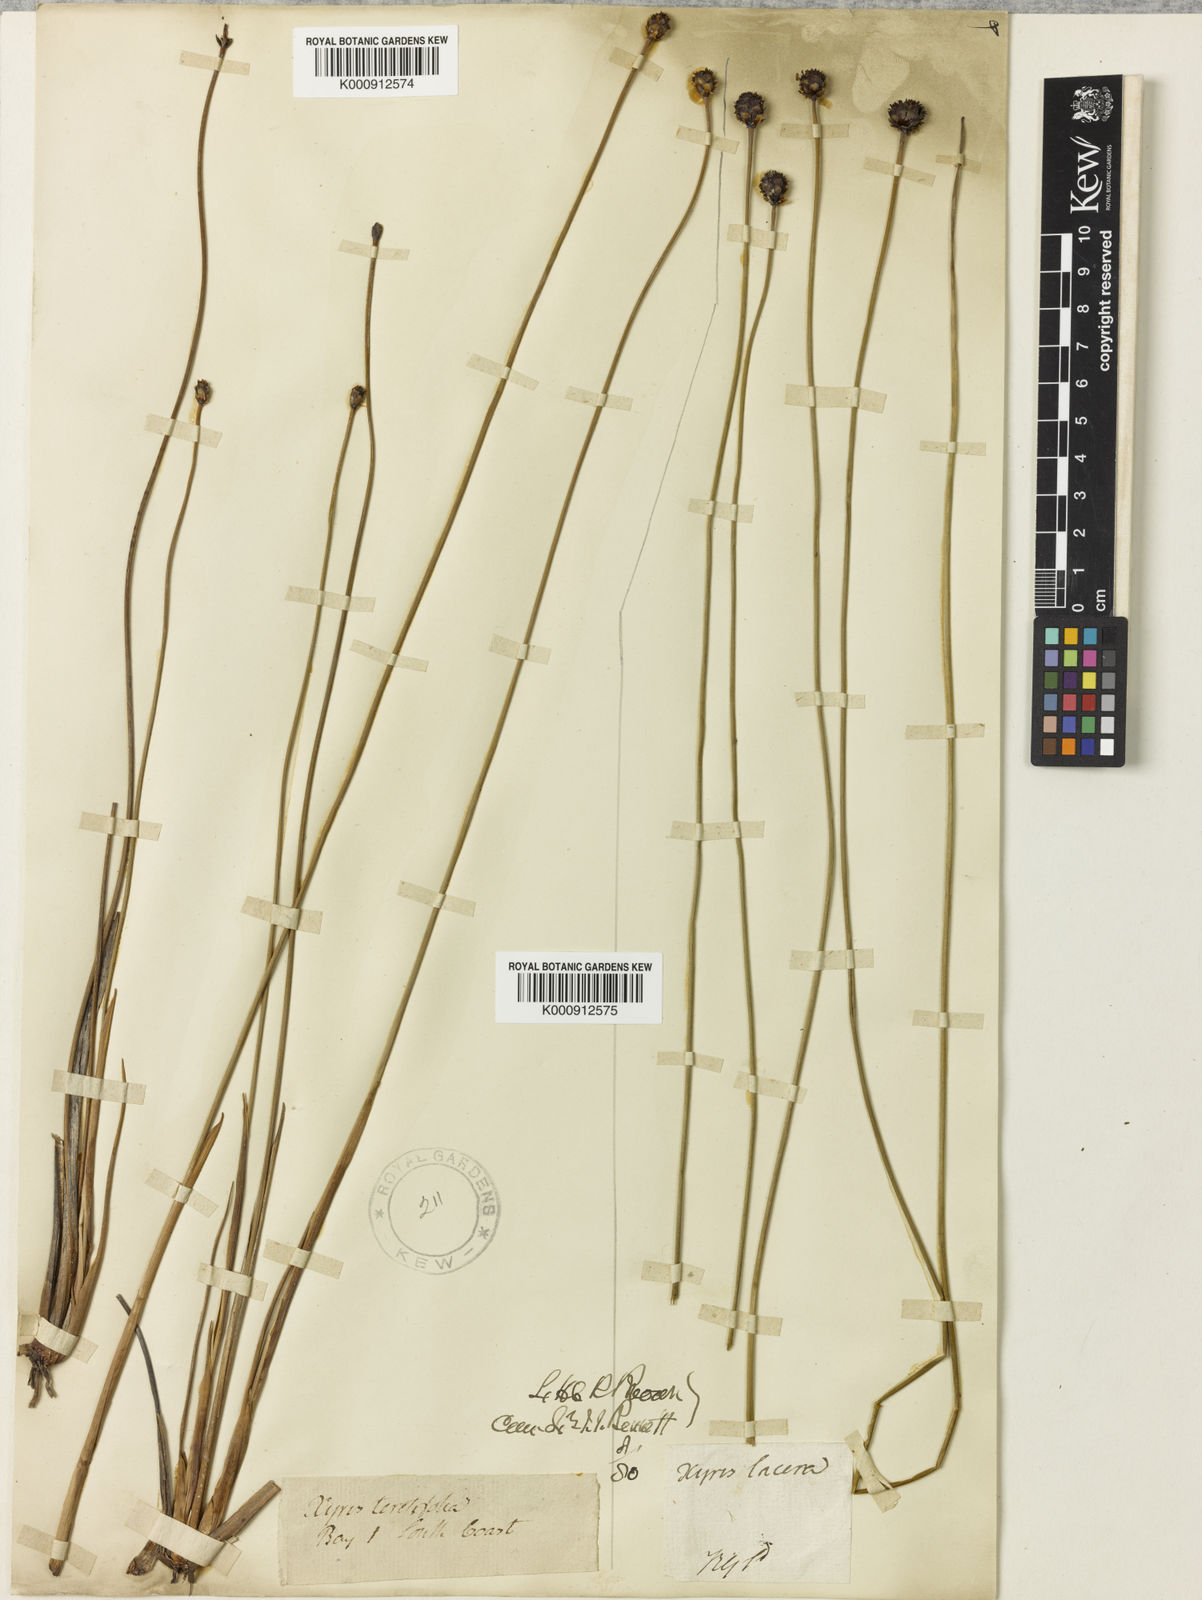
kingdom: Plantae
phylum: Tracheophyta
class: Liliopsida
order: Poales
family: Xyridaceae
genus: Xyris
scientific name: Xyris
